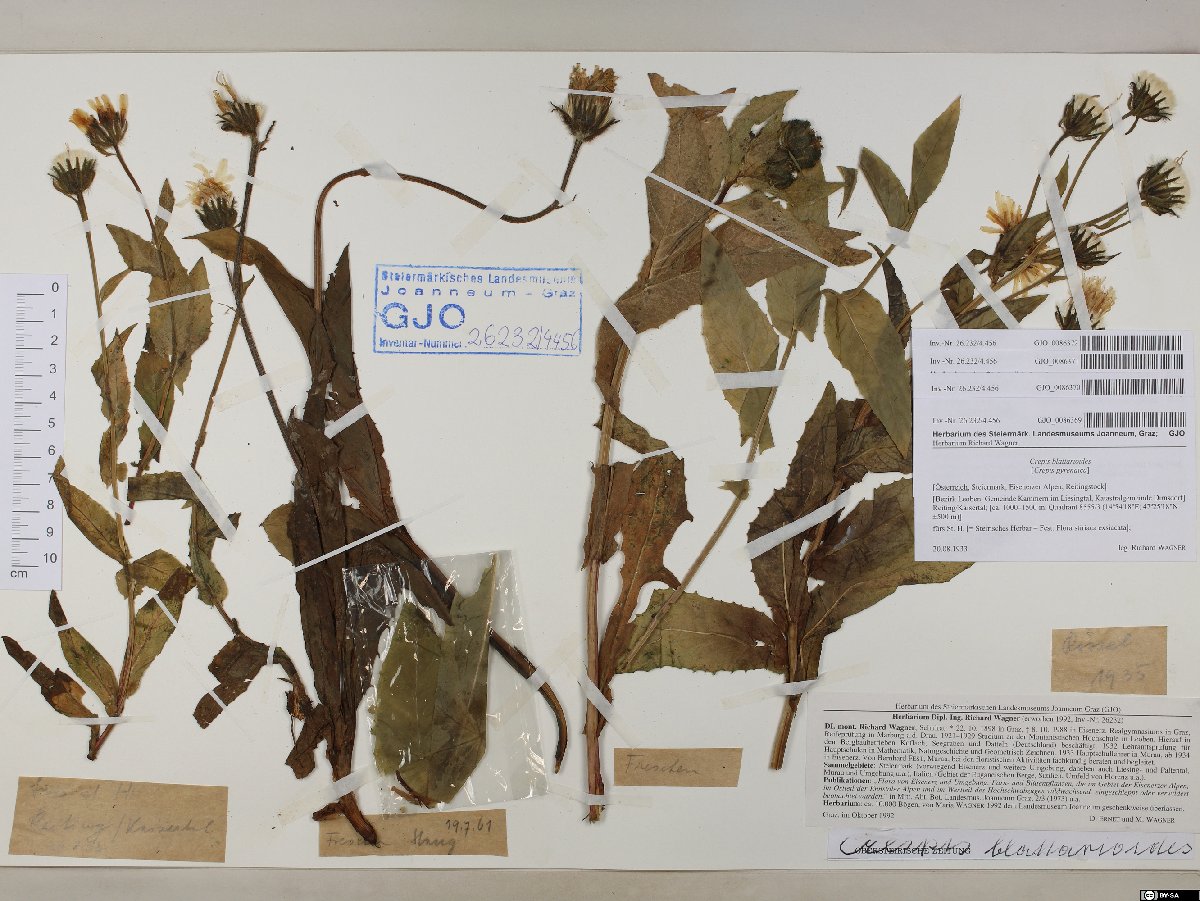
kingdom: Plantae
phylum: Tracheophyta
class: Magnoliopsida
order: Asterales
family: Asteraceae
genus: Crepis
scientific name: Crepis blattarioides
